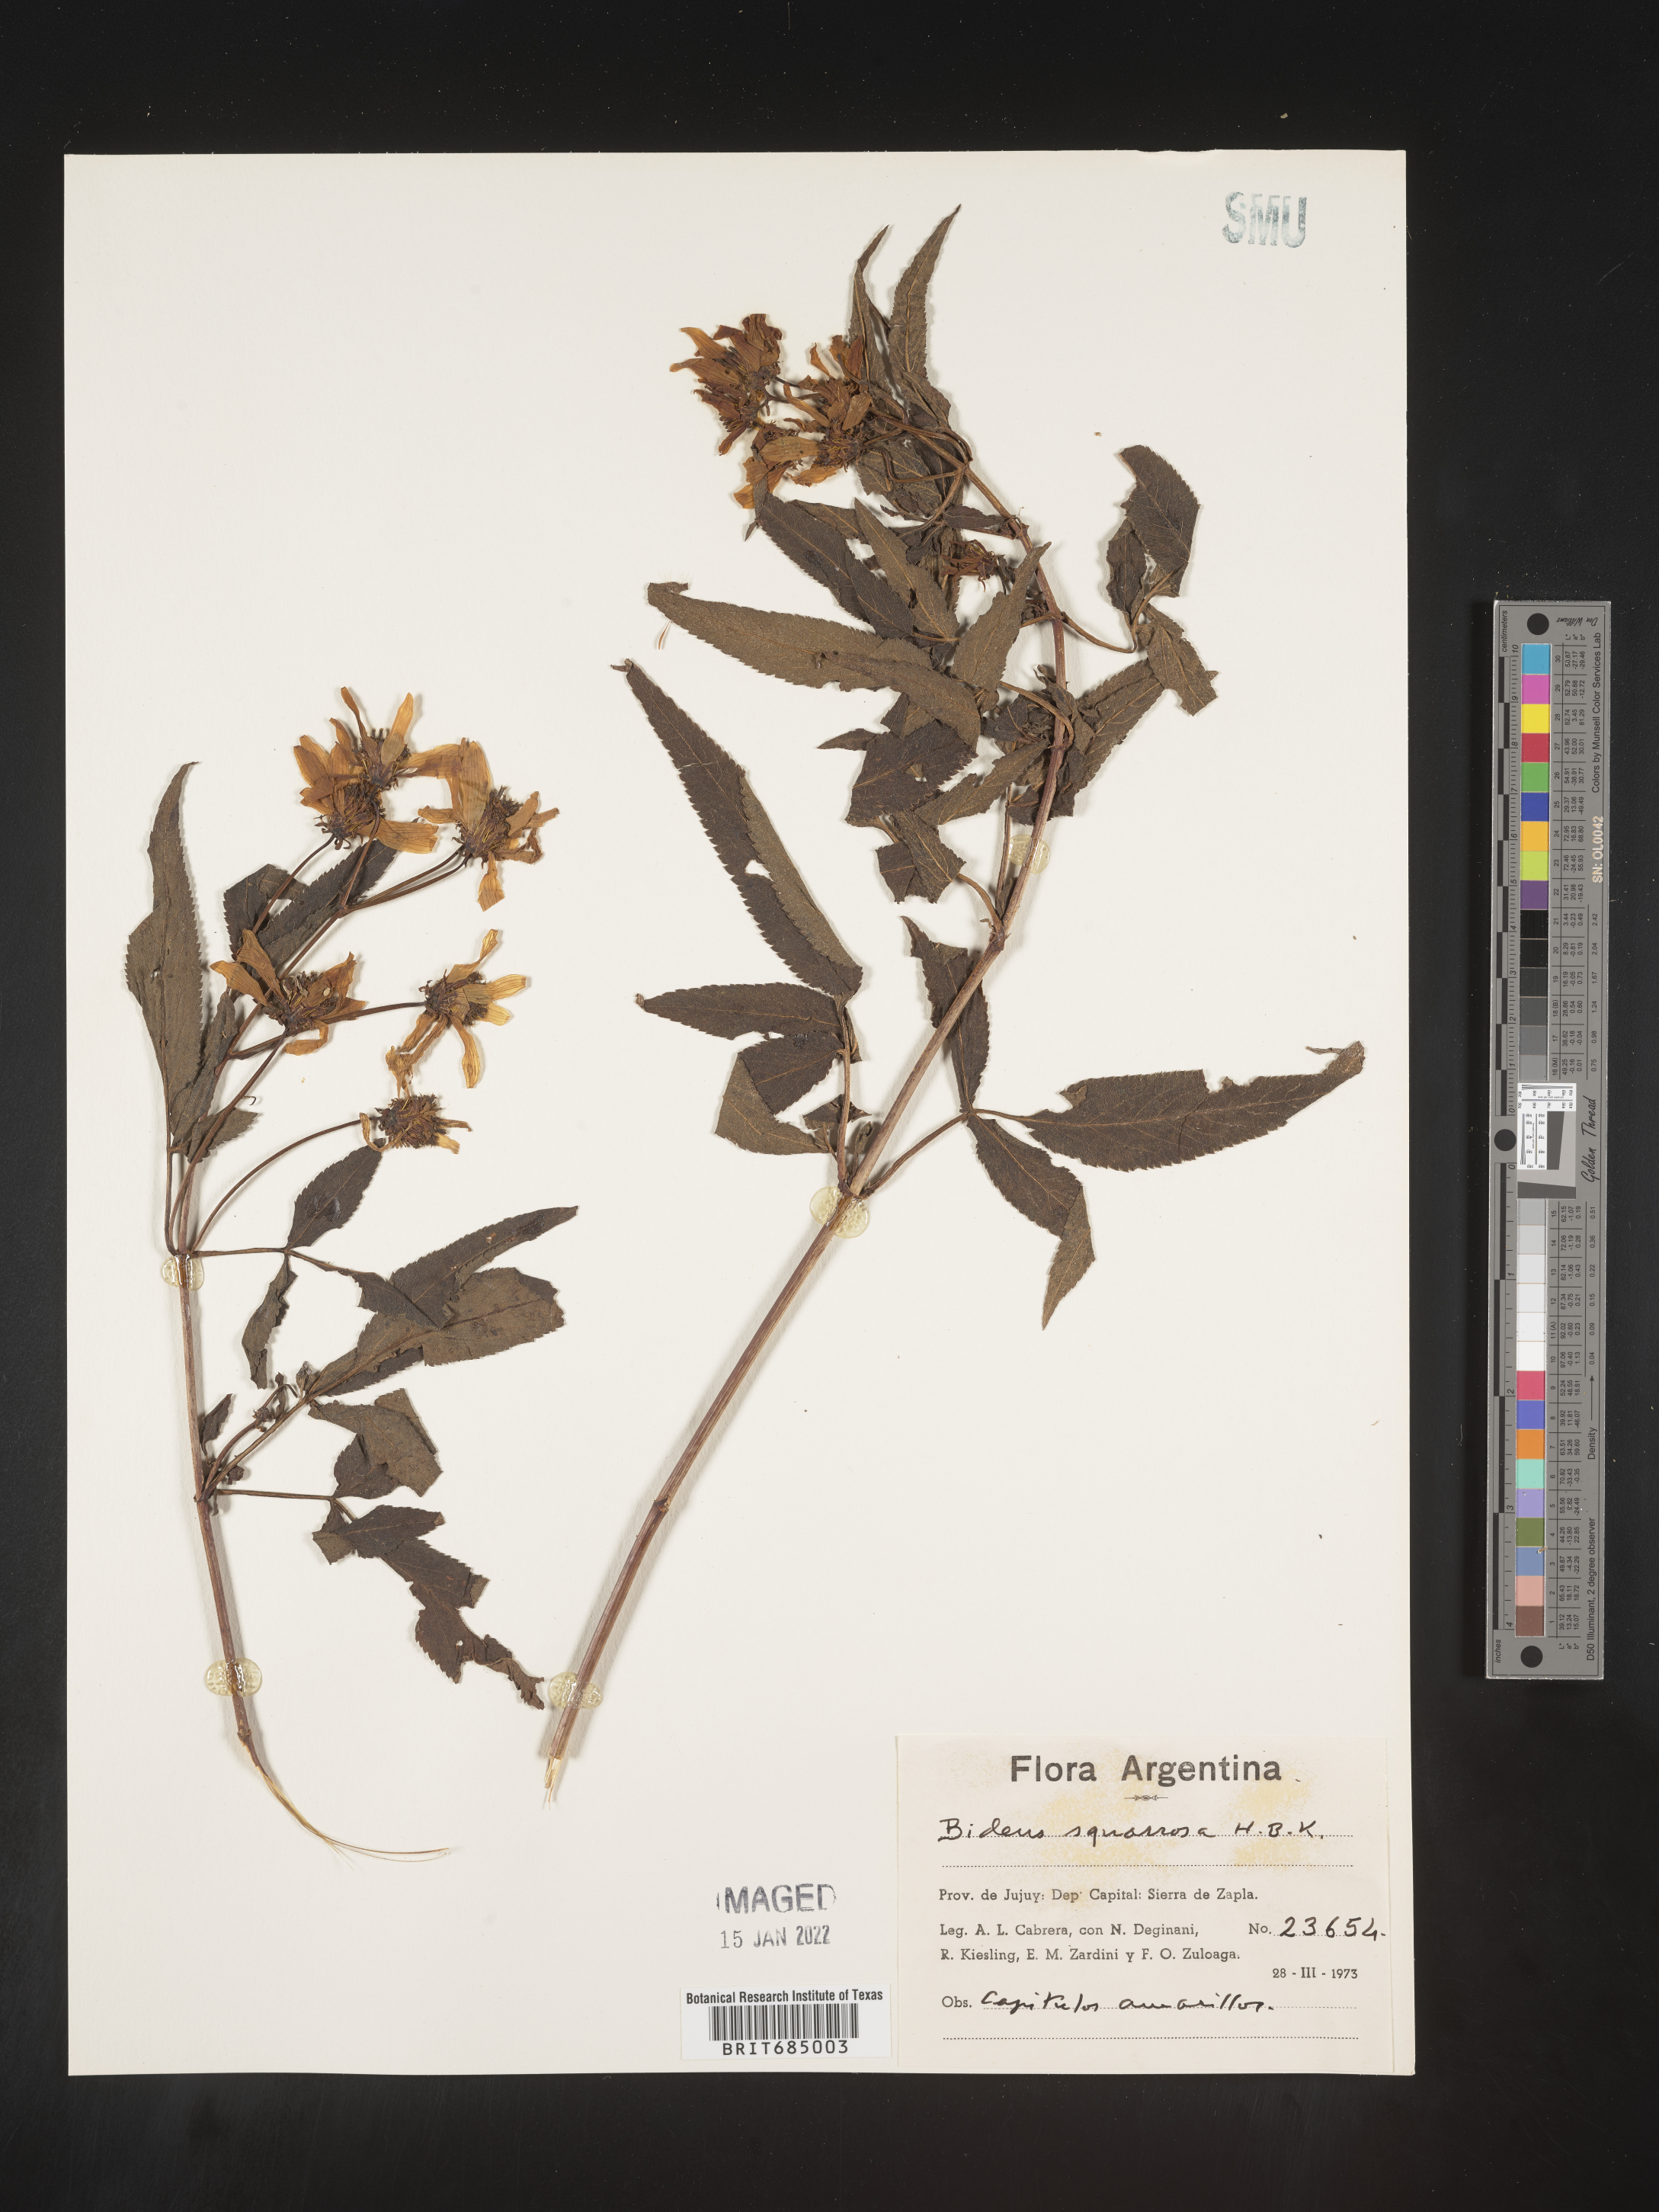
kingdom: Plantae
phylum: Tracheophyta
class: Magnoliopsida
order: Asterales
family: Asteraceae
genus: Bidens
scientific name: Bidens rubifolia
